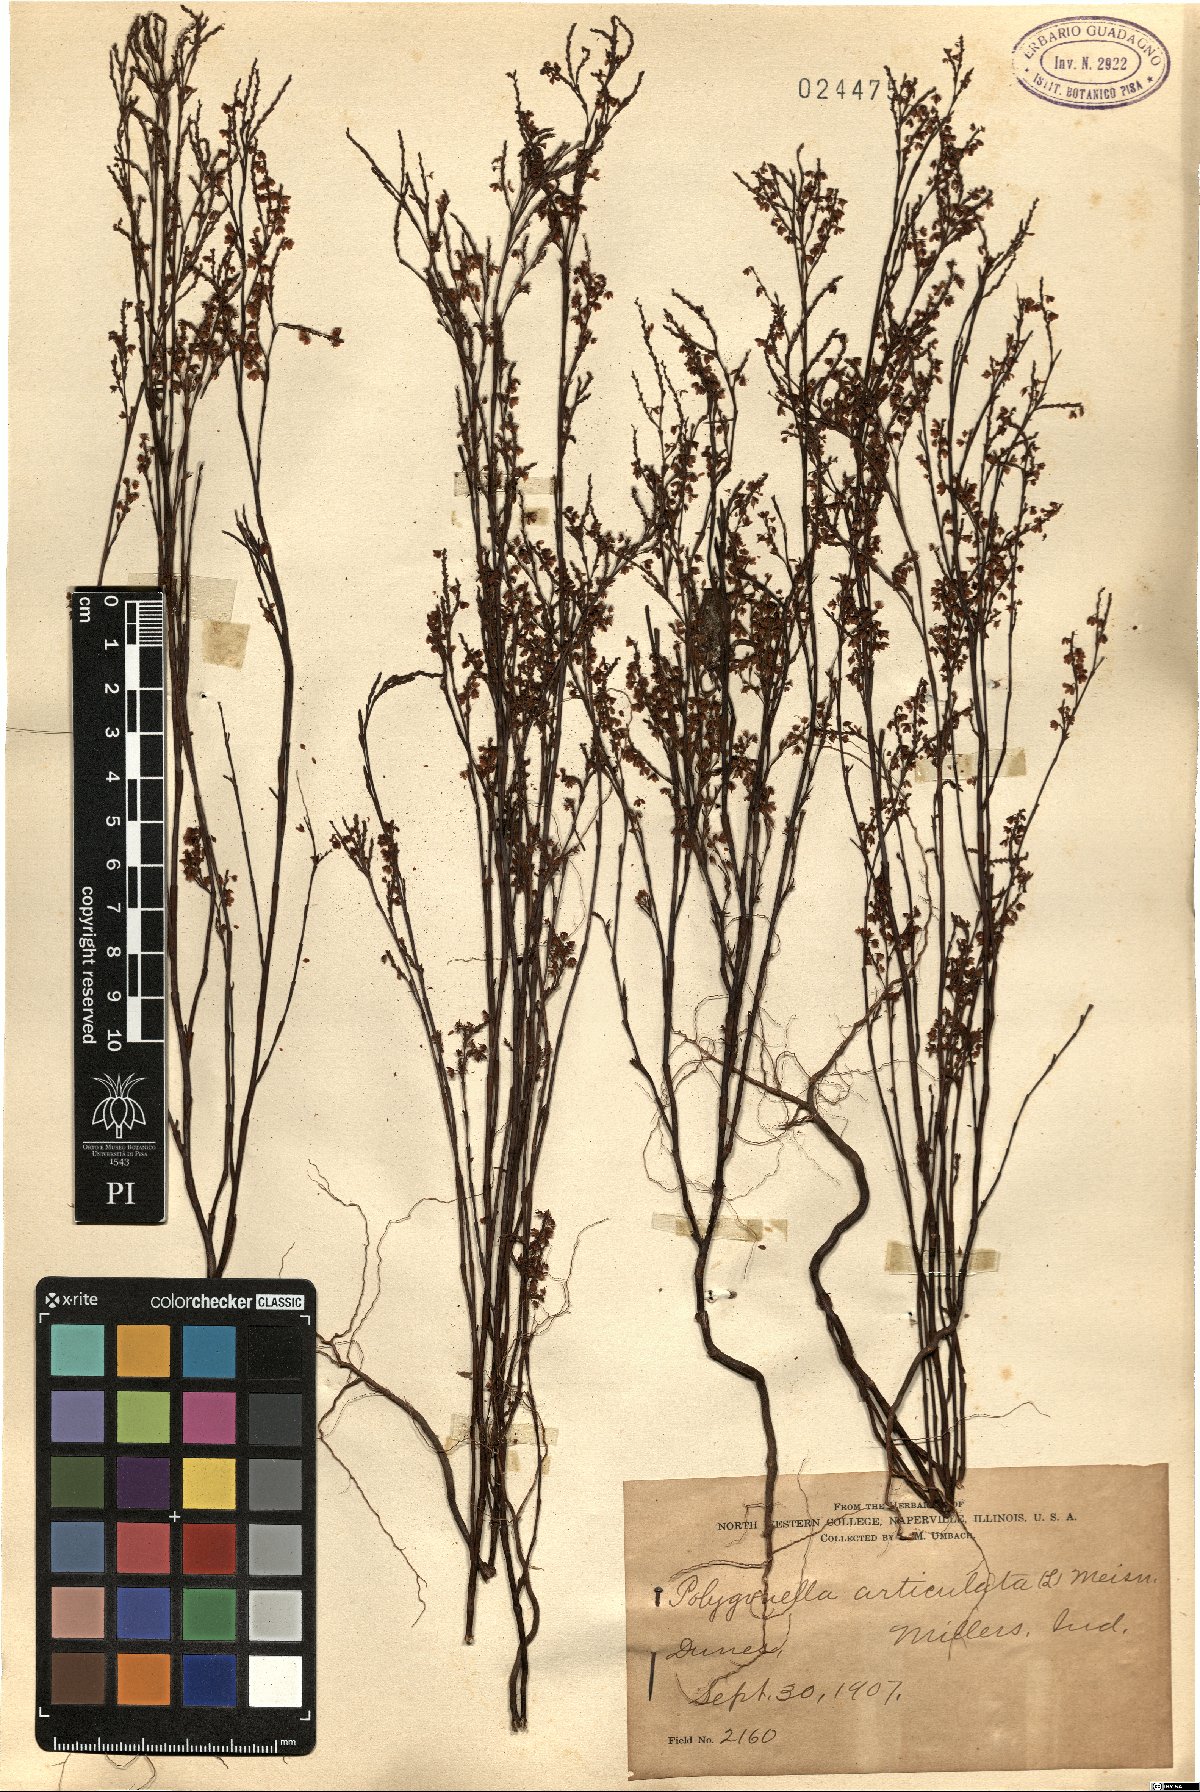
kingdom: Plantae
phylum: Tracheophyta
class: Magnoliopsida
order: Caryophyllales
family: Polygonaceae
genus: Polygonella
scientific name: Polygonella articulata
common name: Coastal jointweed
